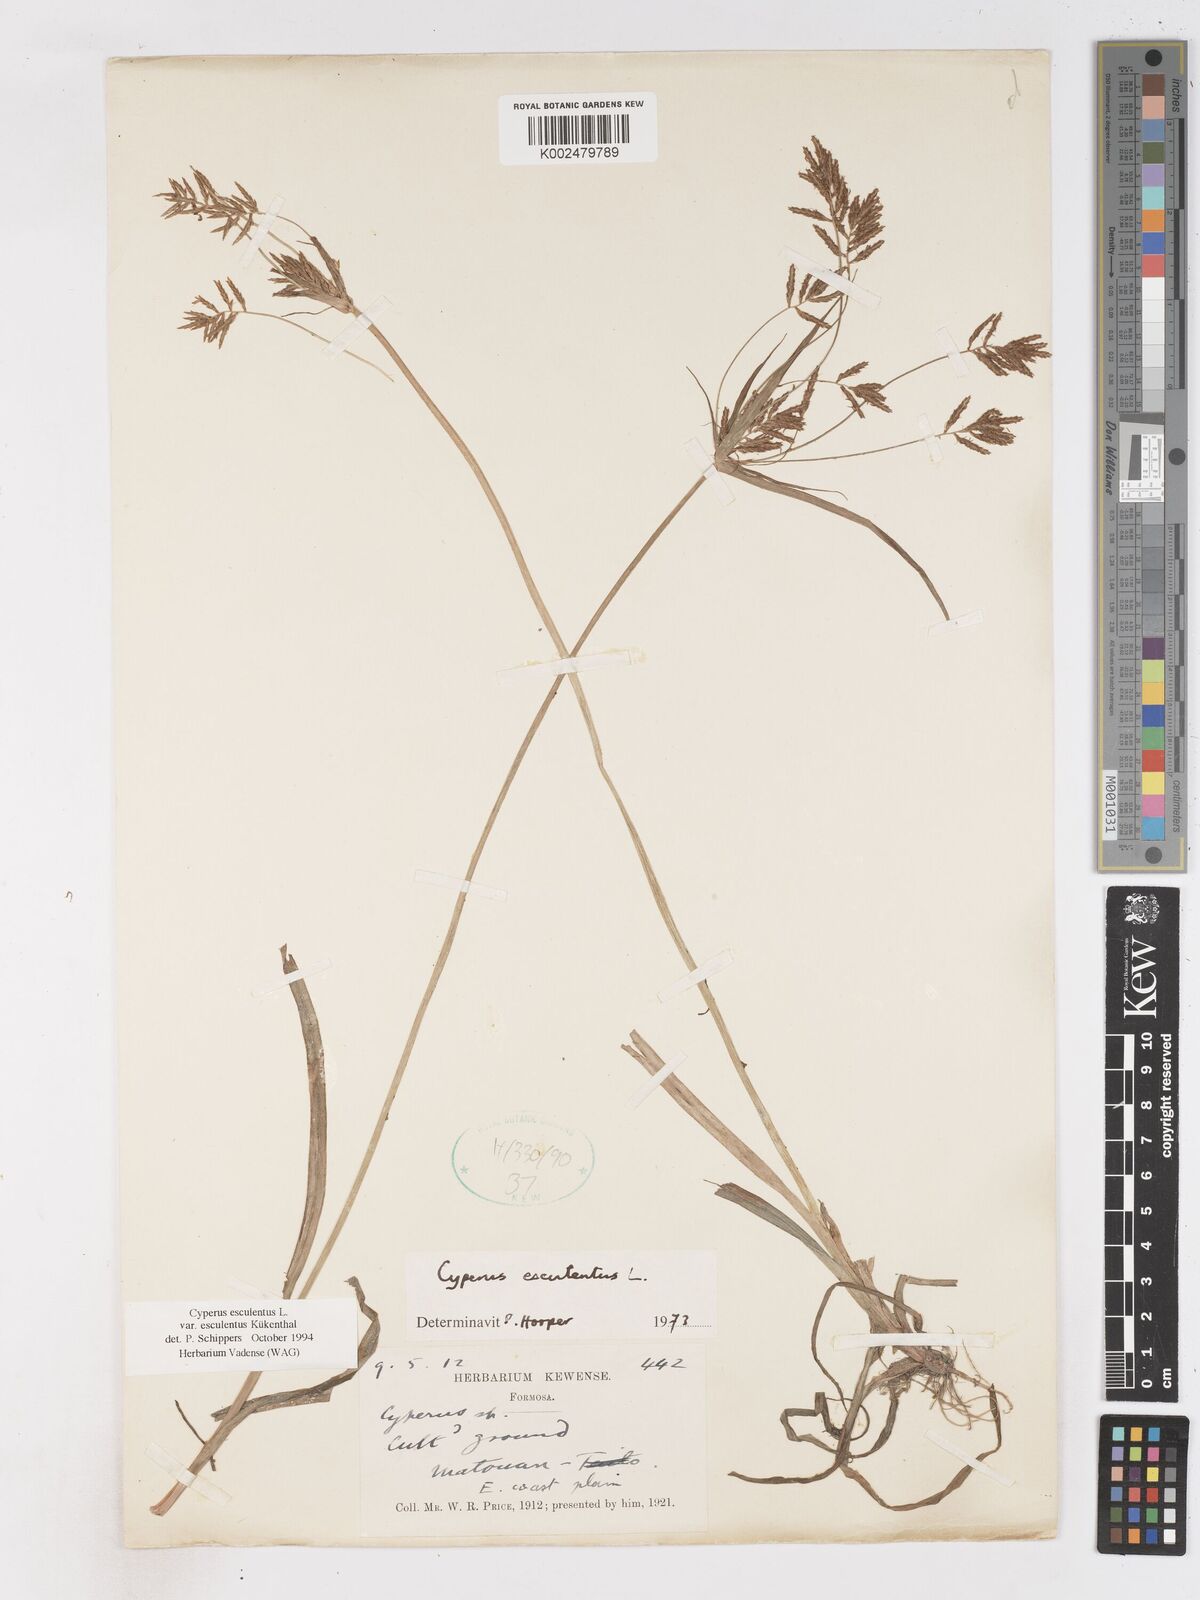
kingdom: Plantae
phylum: Tracheophyta
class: Liliopsida
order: Poales
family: Cyperaceae
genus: Cyperus
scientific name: Cyperus esculentus
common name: Yellow nutsedge
